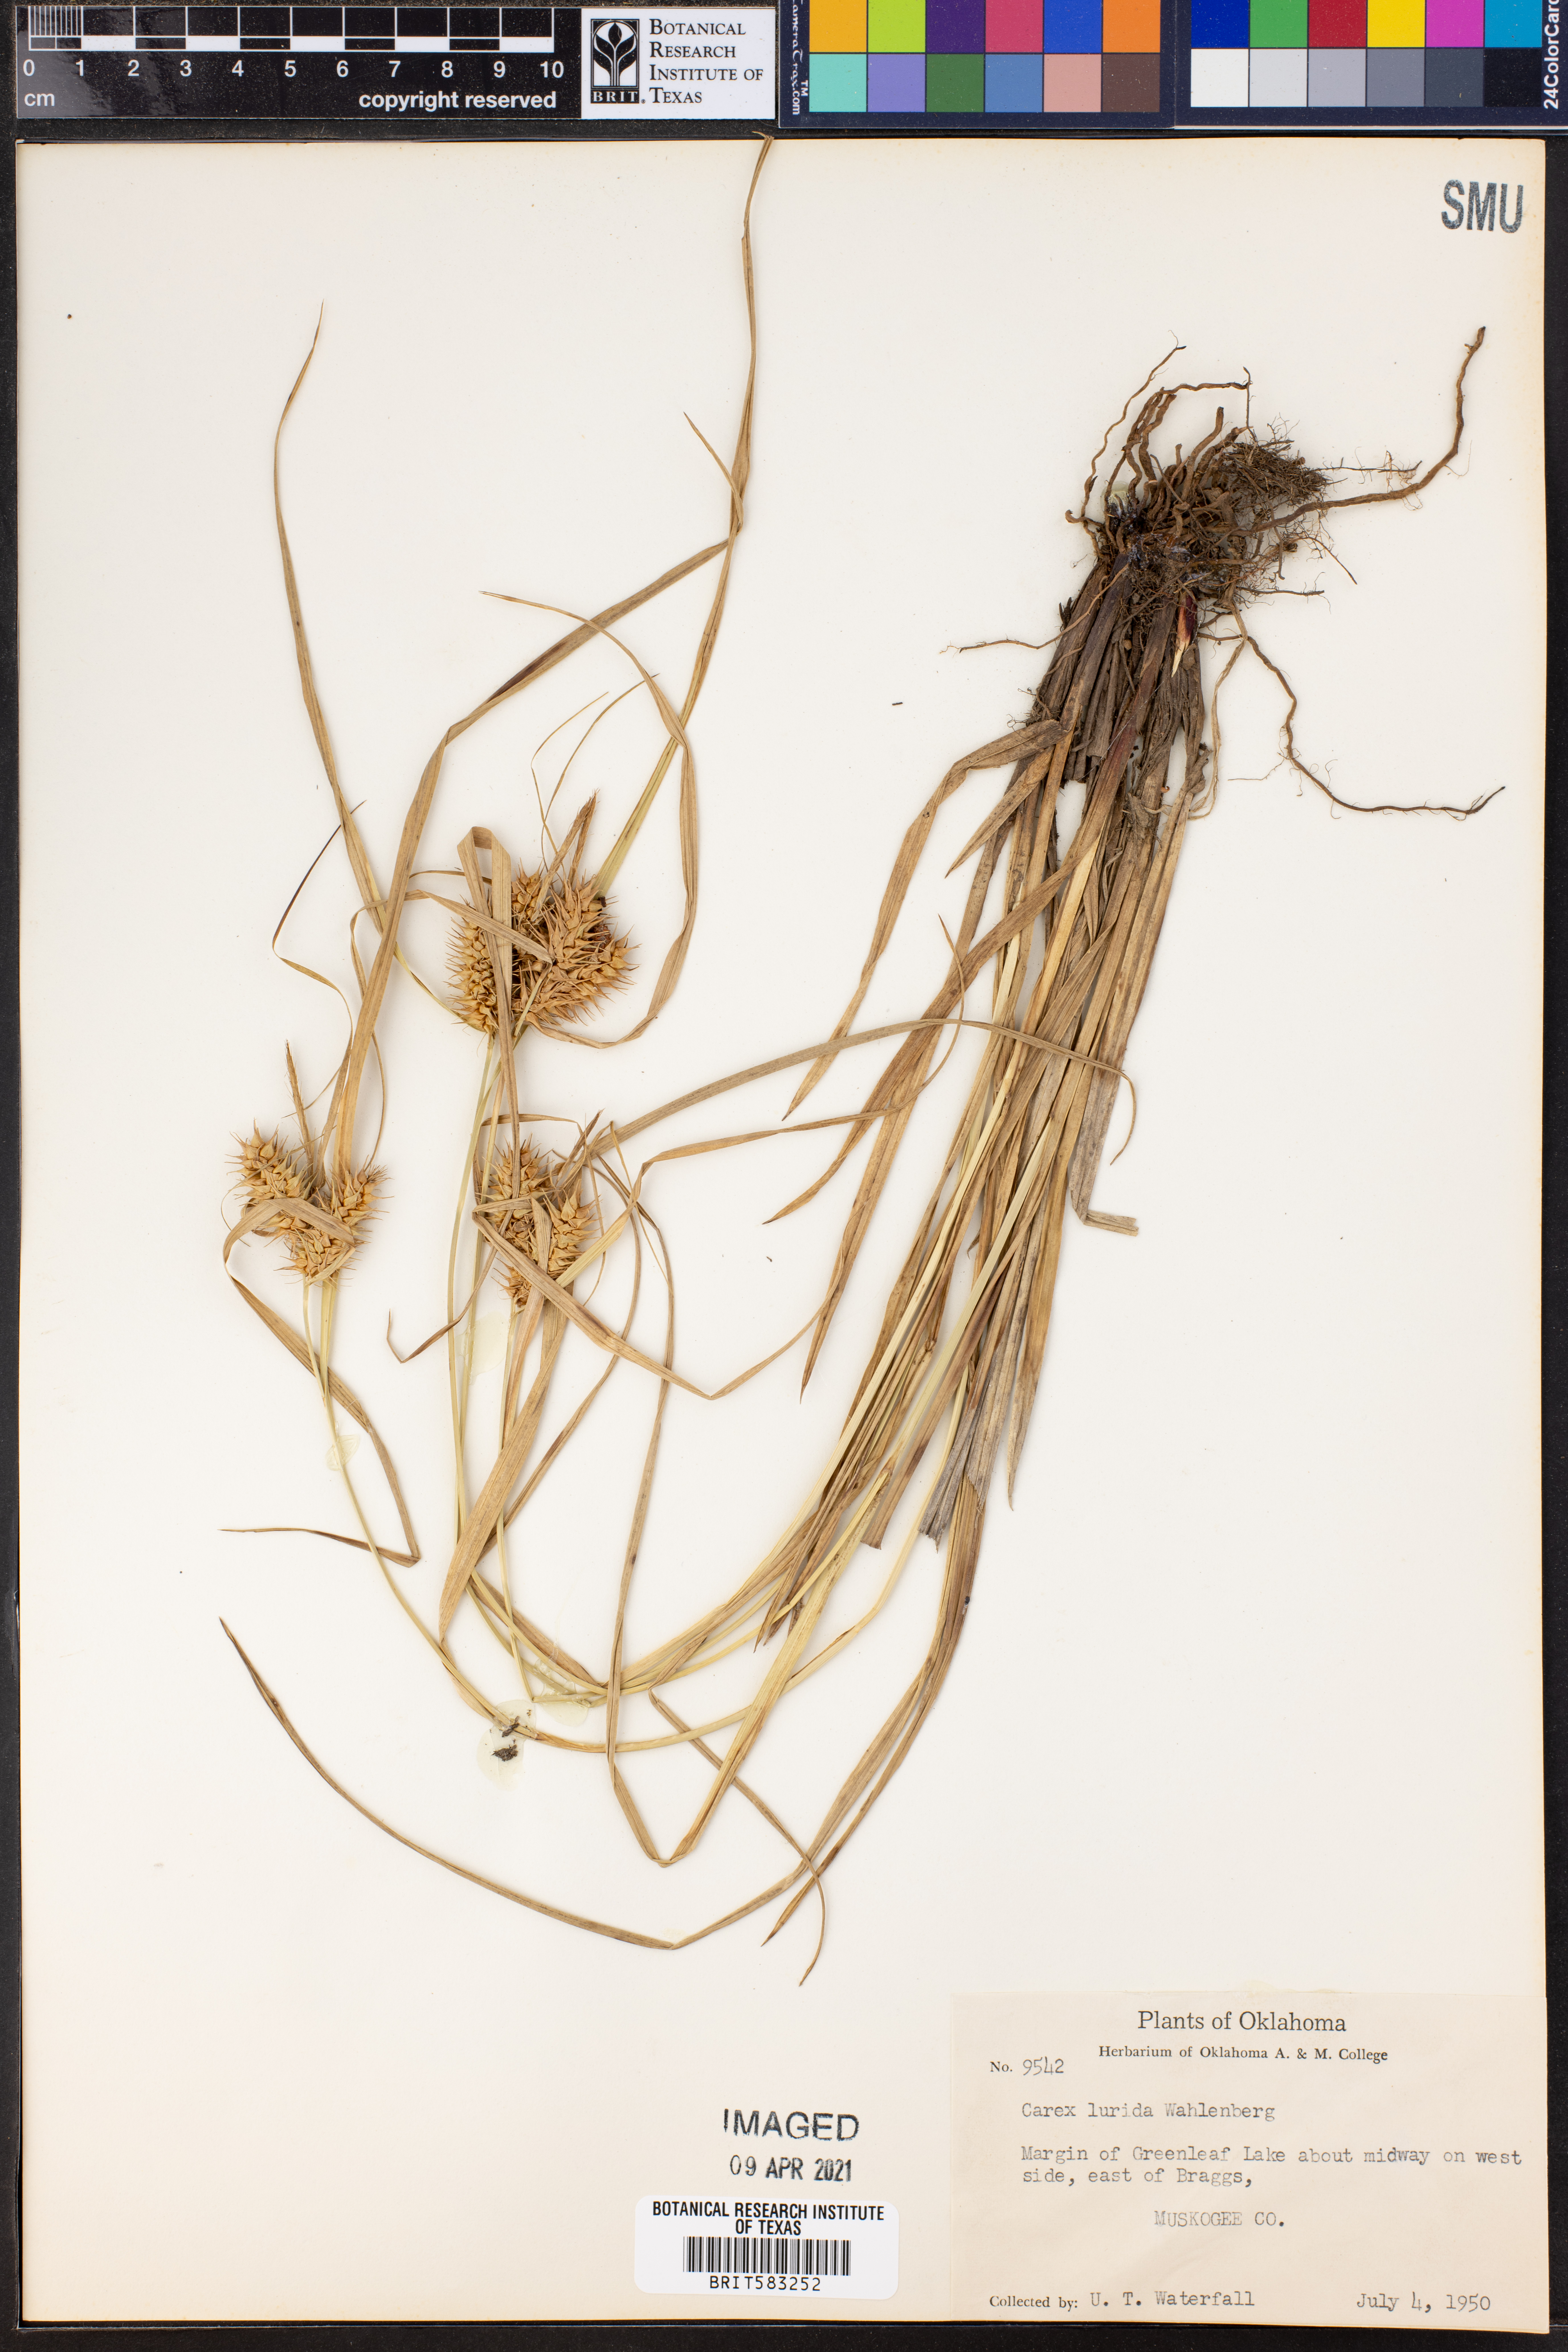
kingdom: Plantae
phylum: Tracheophyta
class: Liliopsida
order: Poales
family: Cyperaceae
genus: Carex
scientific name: Carex lurida
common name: Sallow sedge
